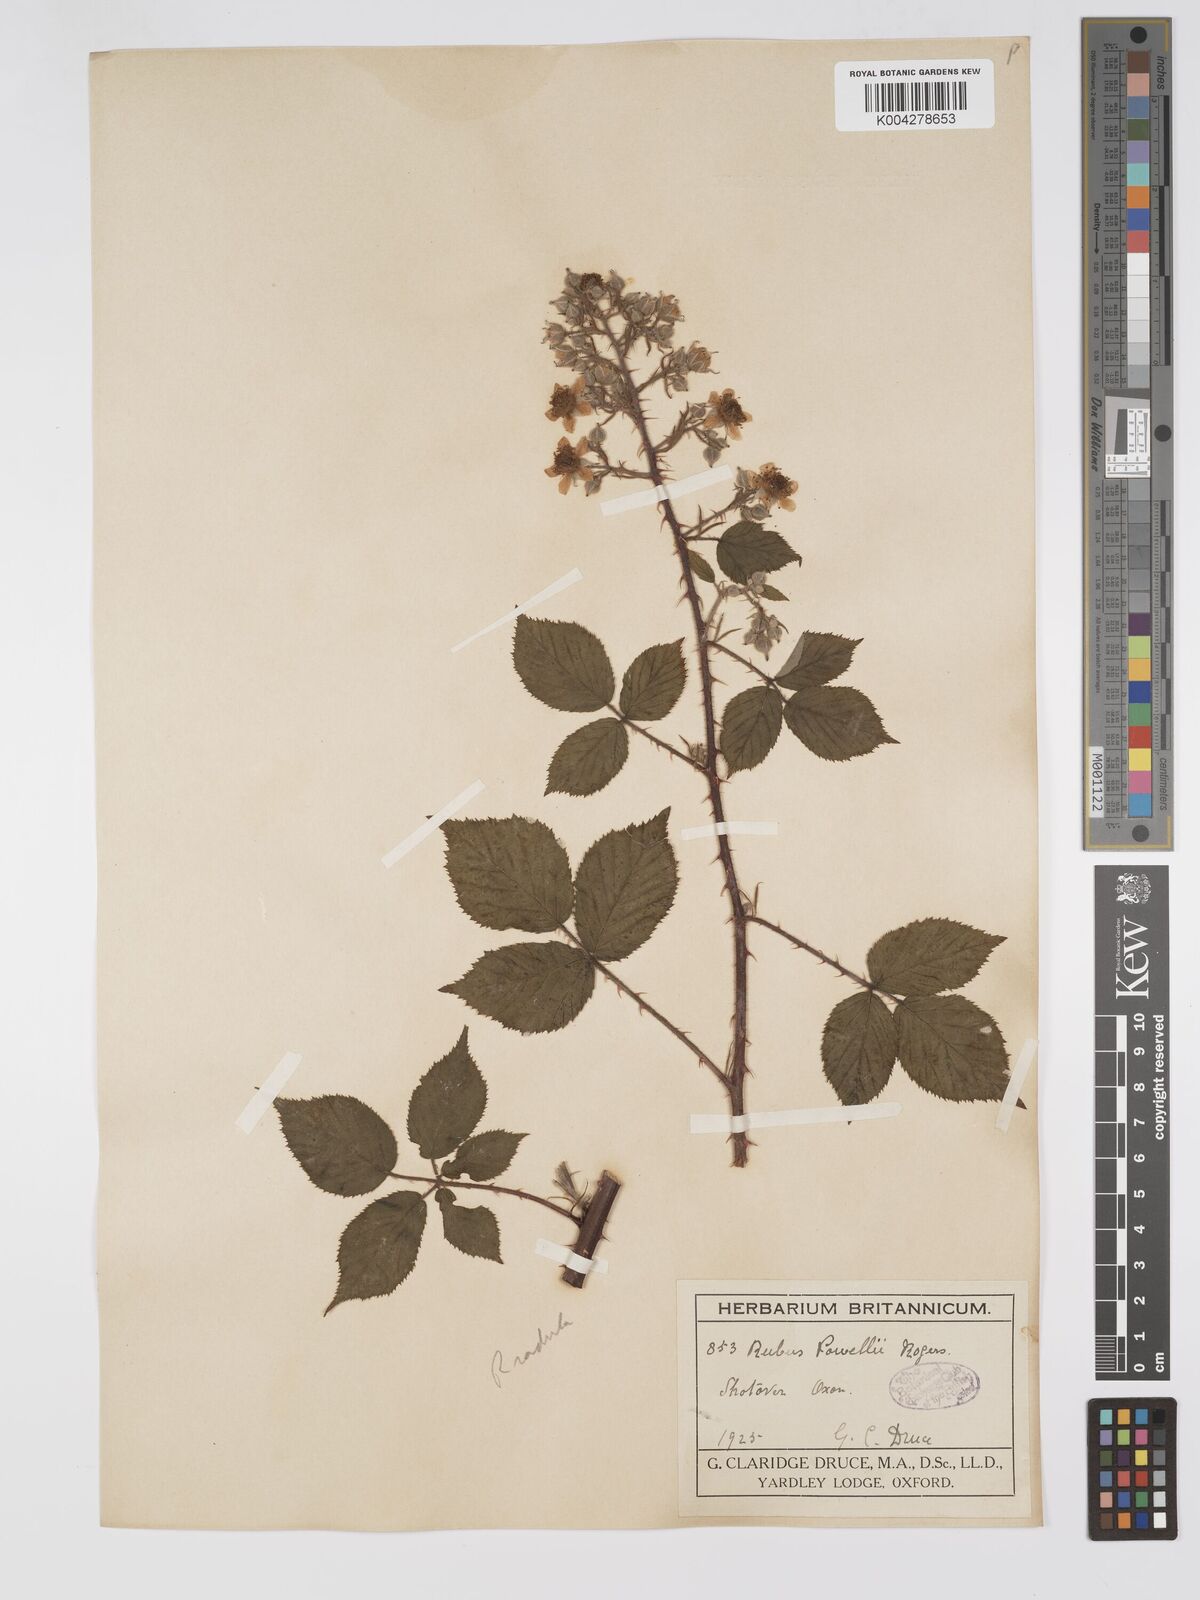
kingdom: Plantae
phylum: Tracheophyta
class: Magnoliopsida
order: Rosales
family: Rosaceae
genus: Rubus
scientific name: Rubus radula
